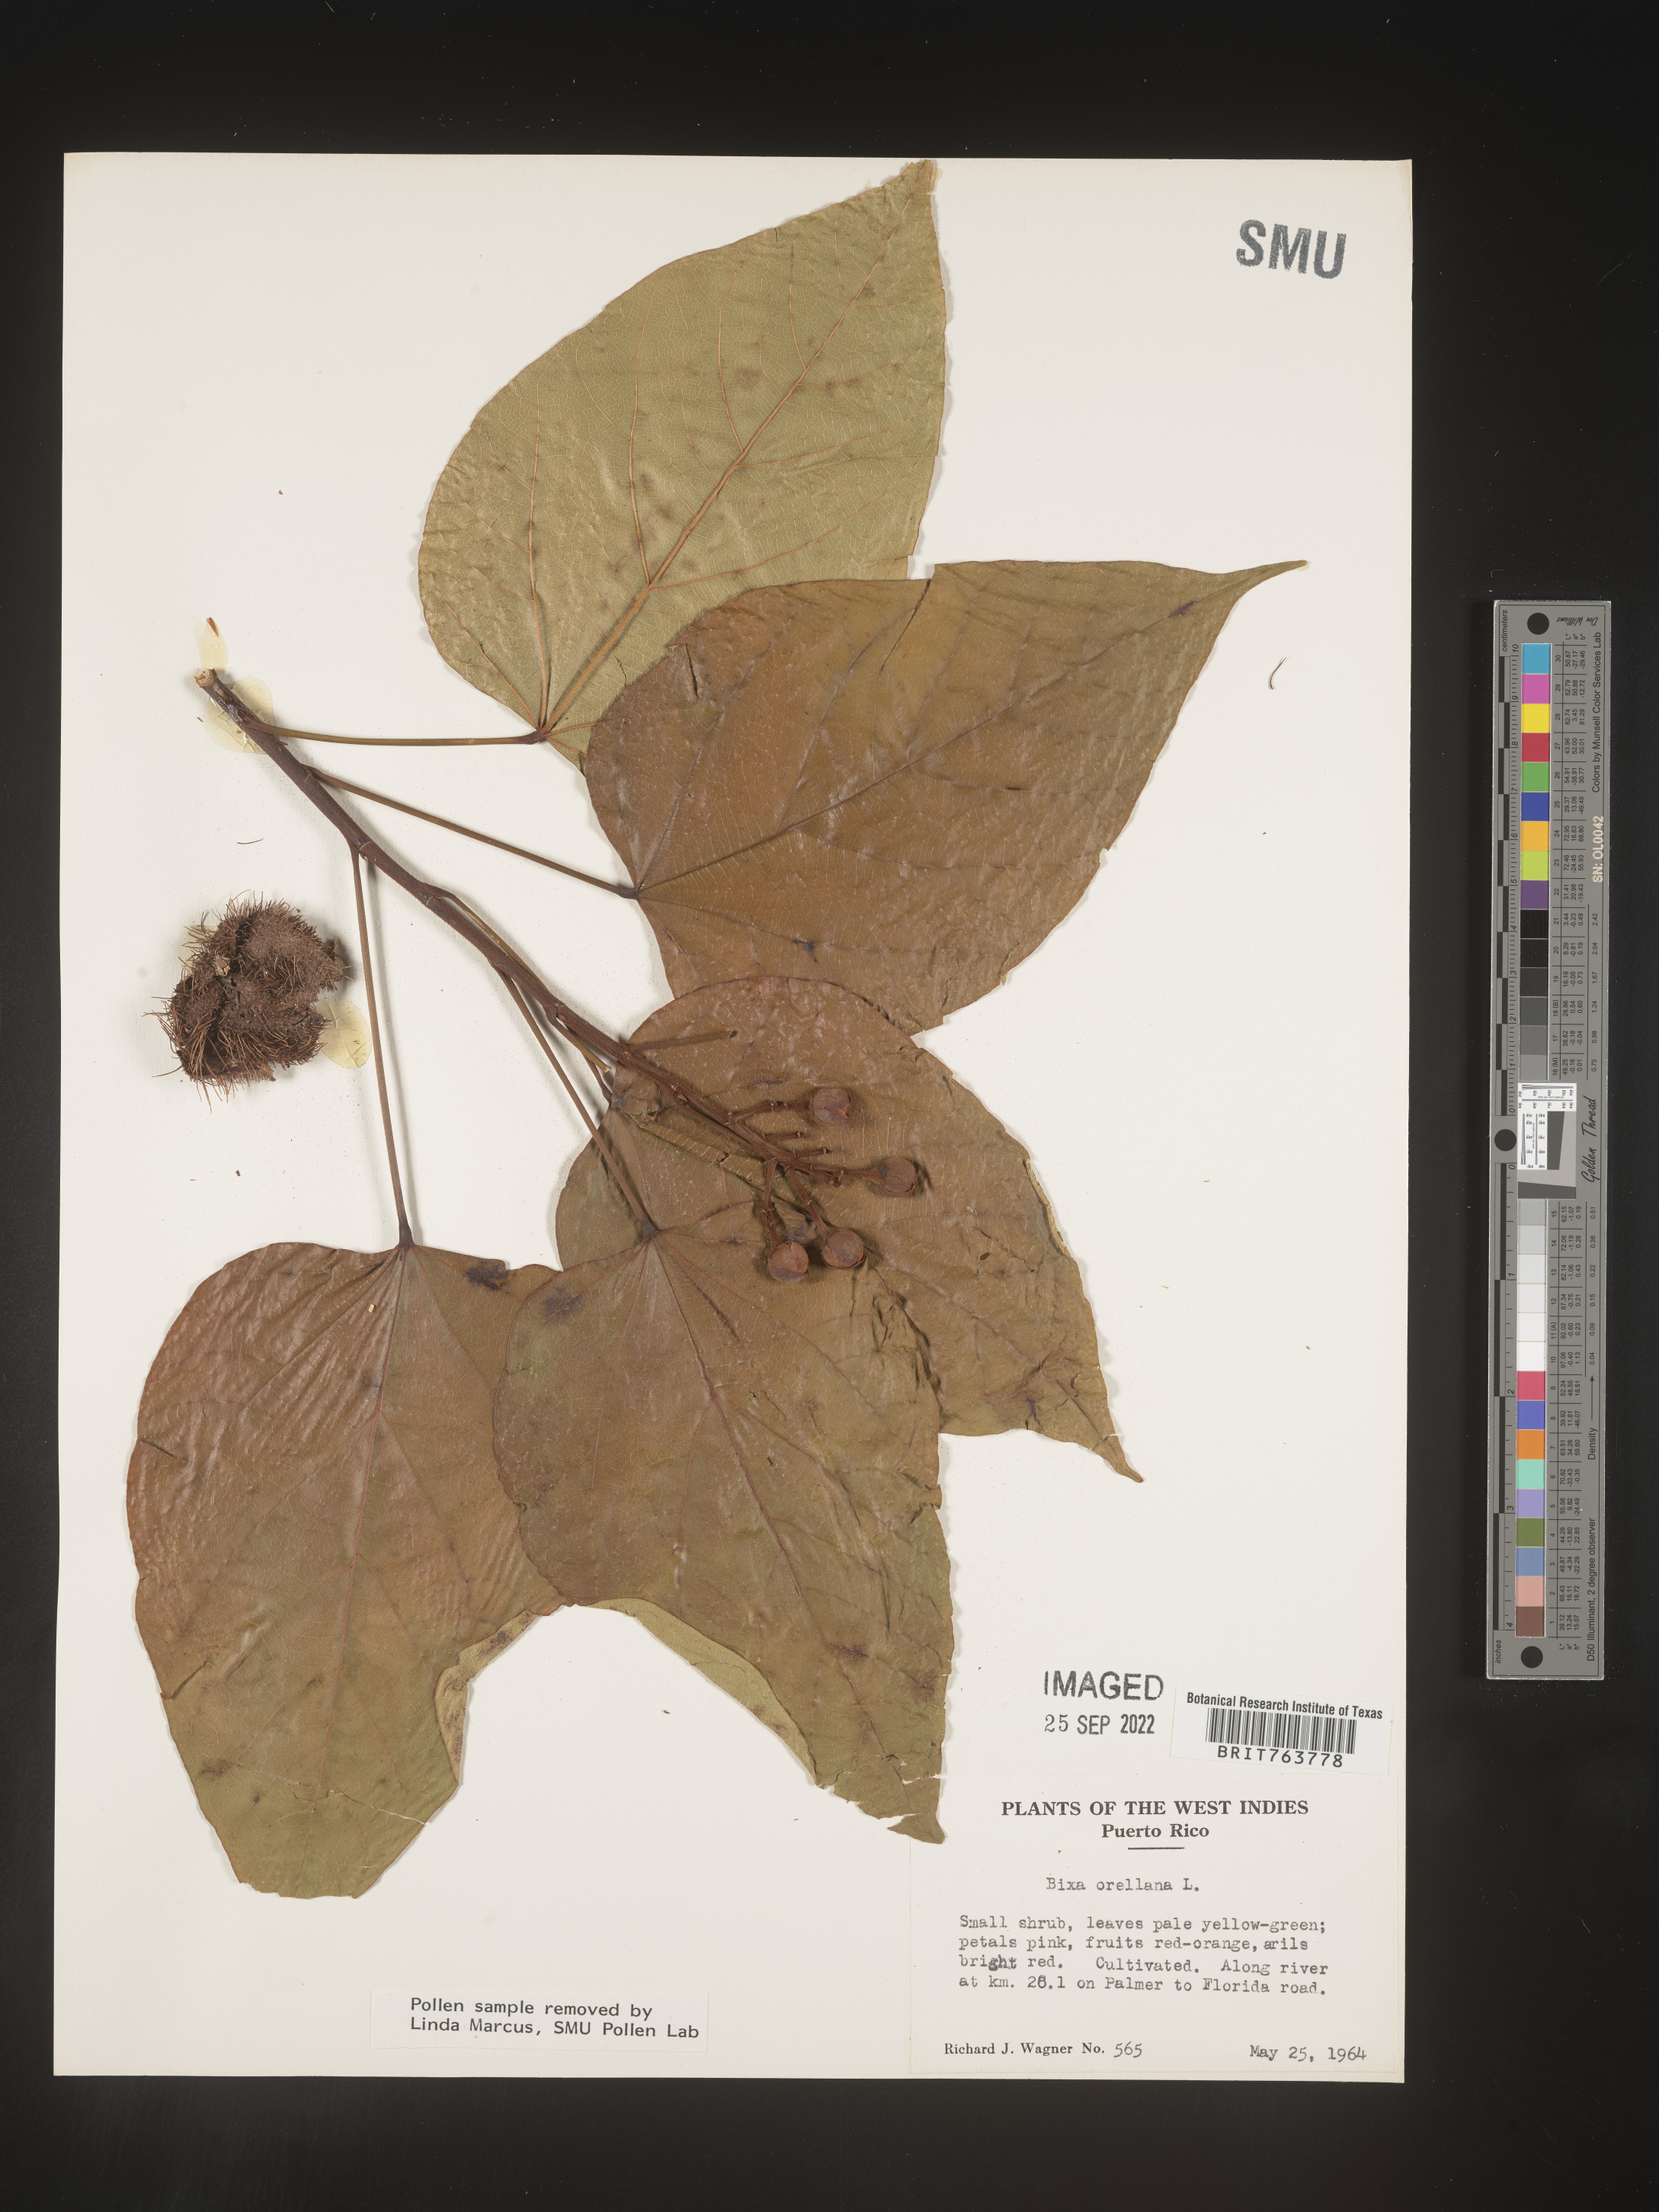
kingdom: Plantae
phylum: Tracheophyta
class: Magnoliopsida
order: Malvales
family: Bixaceae
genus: Bixa
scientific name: Bixa
